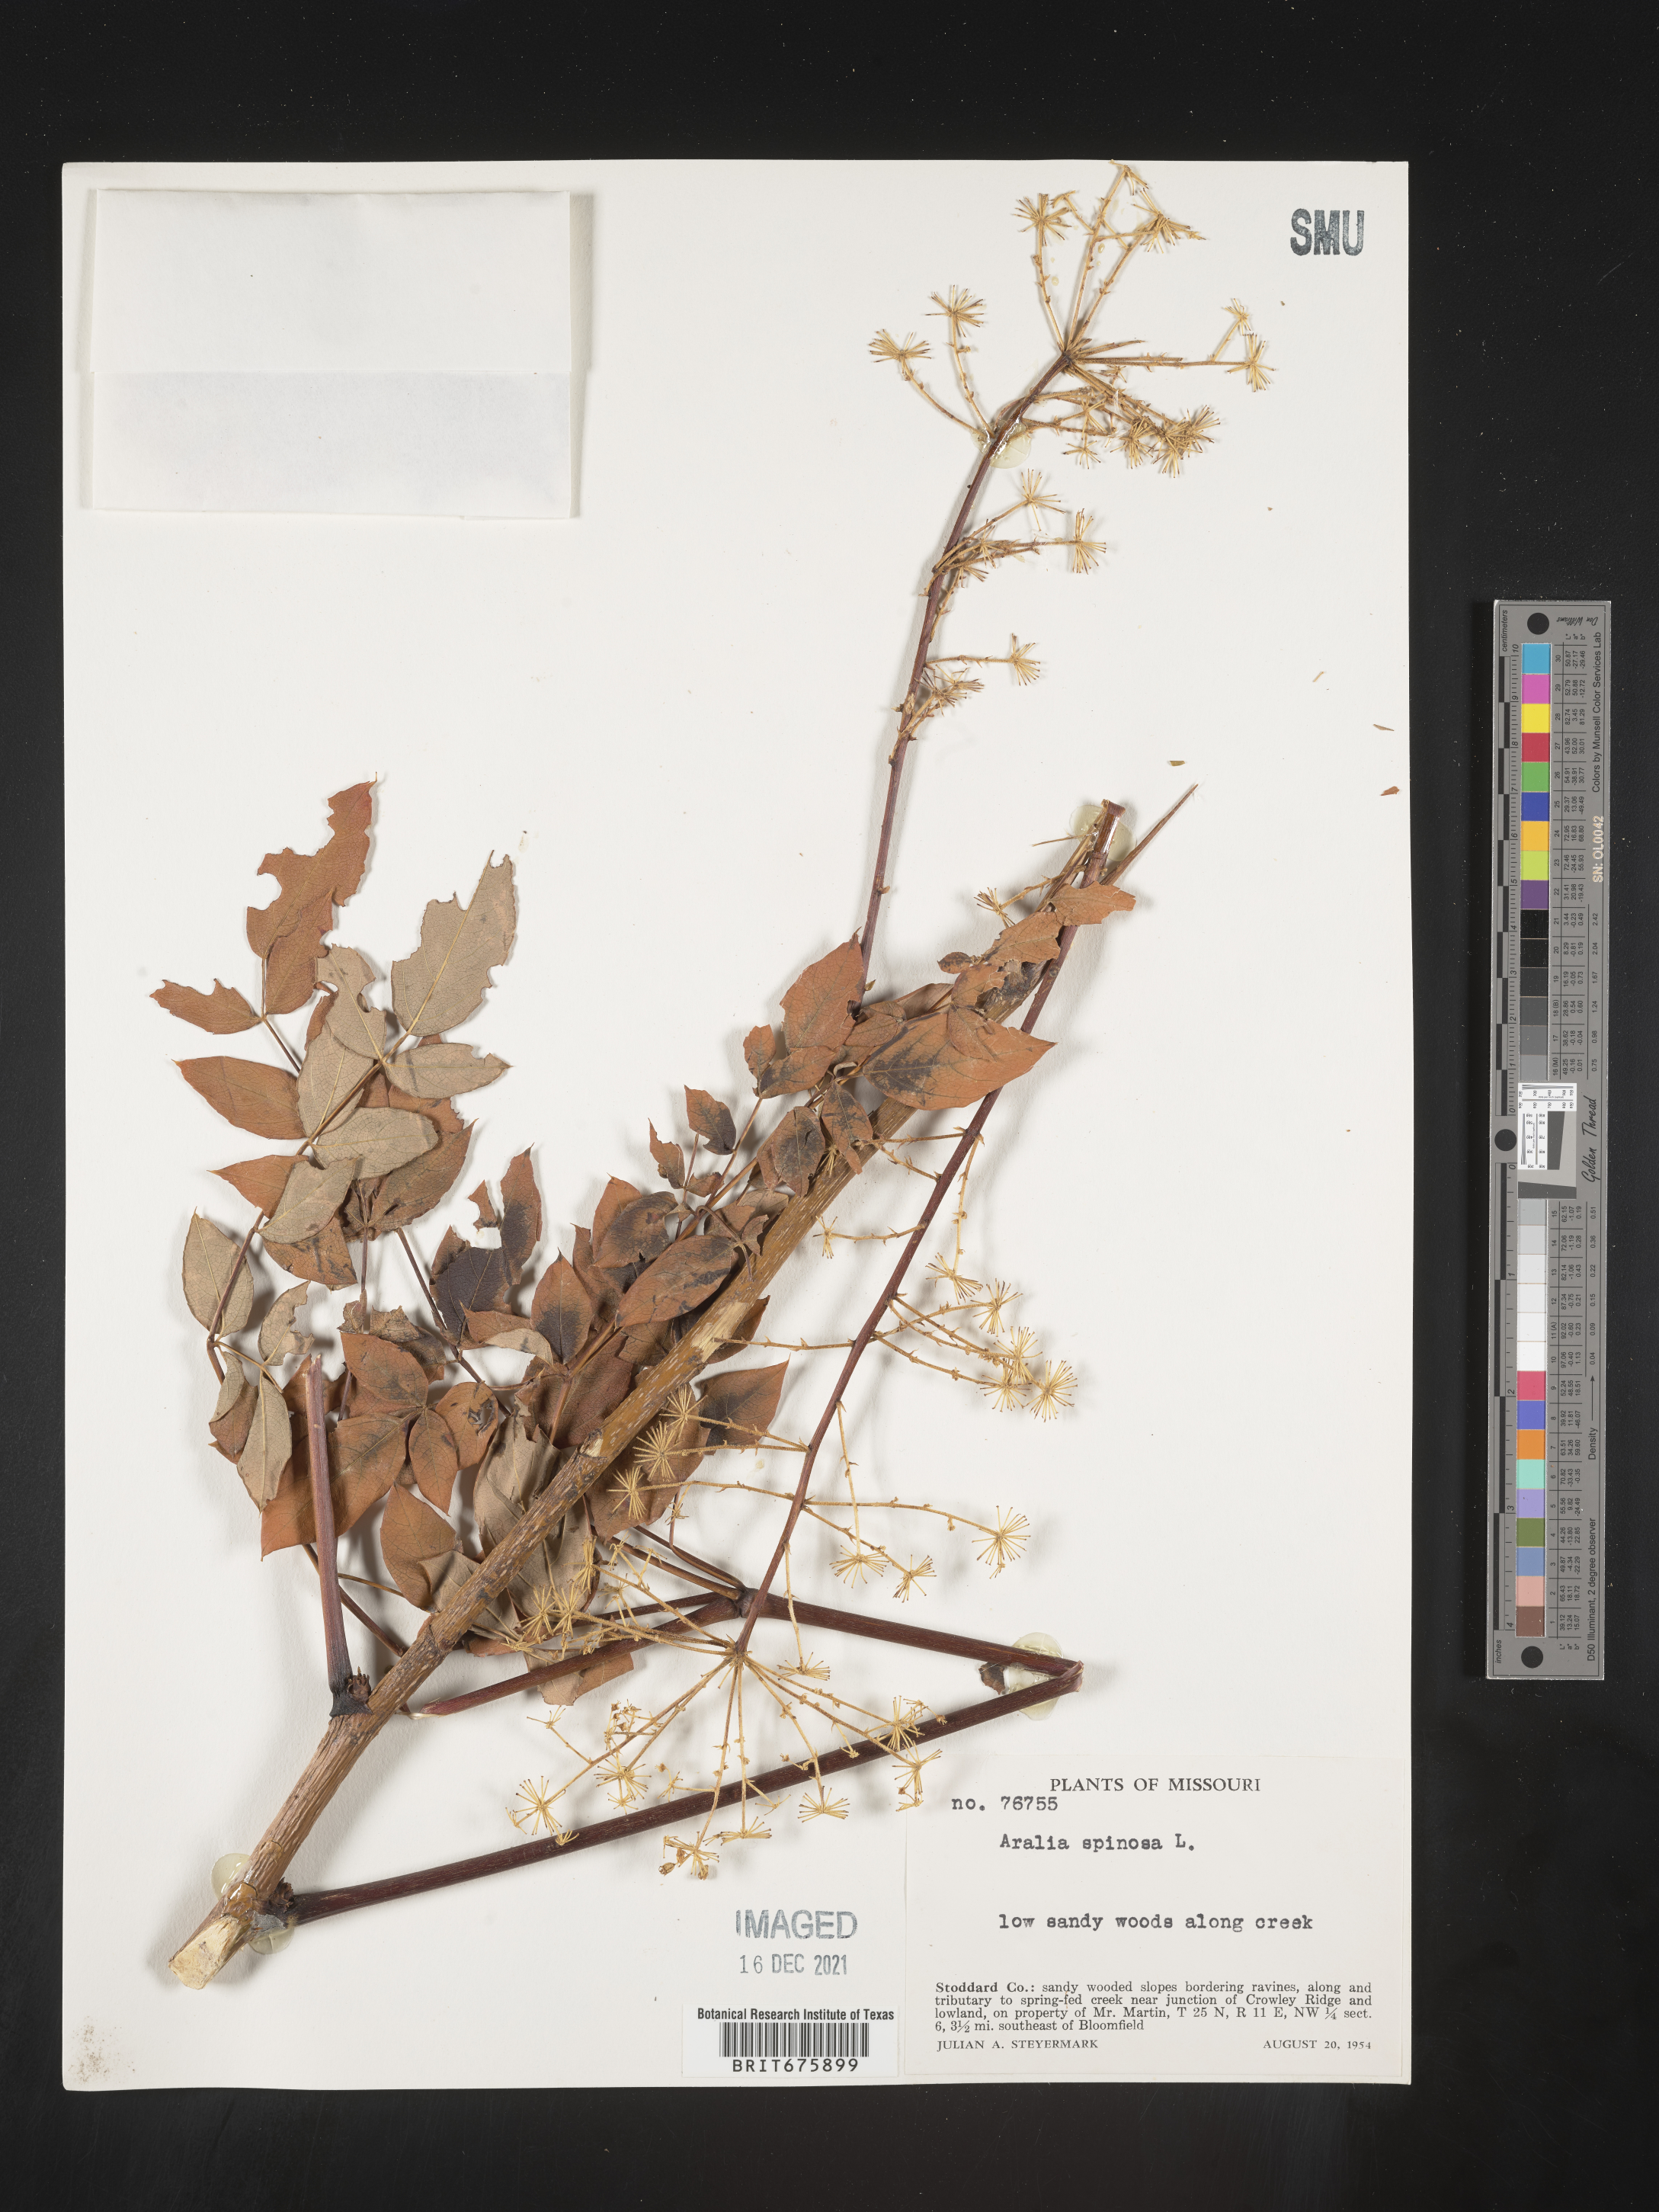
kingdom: Plantae
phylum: Tracheophyta
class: Magnoliopsida
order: Apiales
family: Araliaceae
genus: Aralia
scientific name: Aralia spinosa
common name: Hercules'-club
